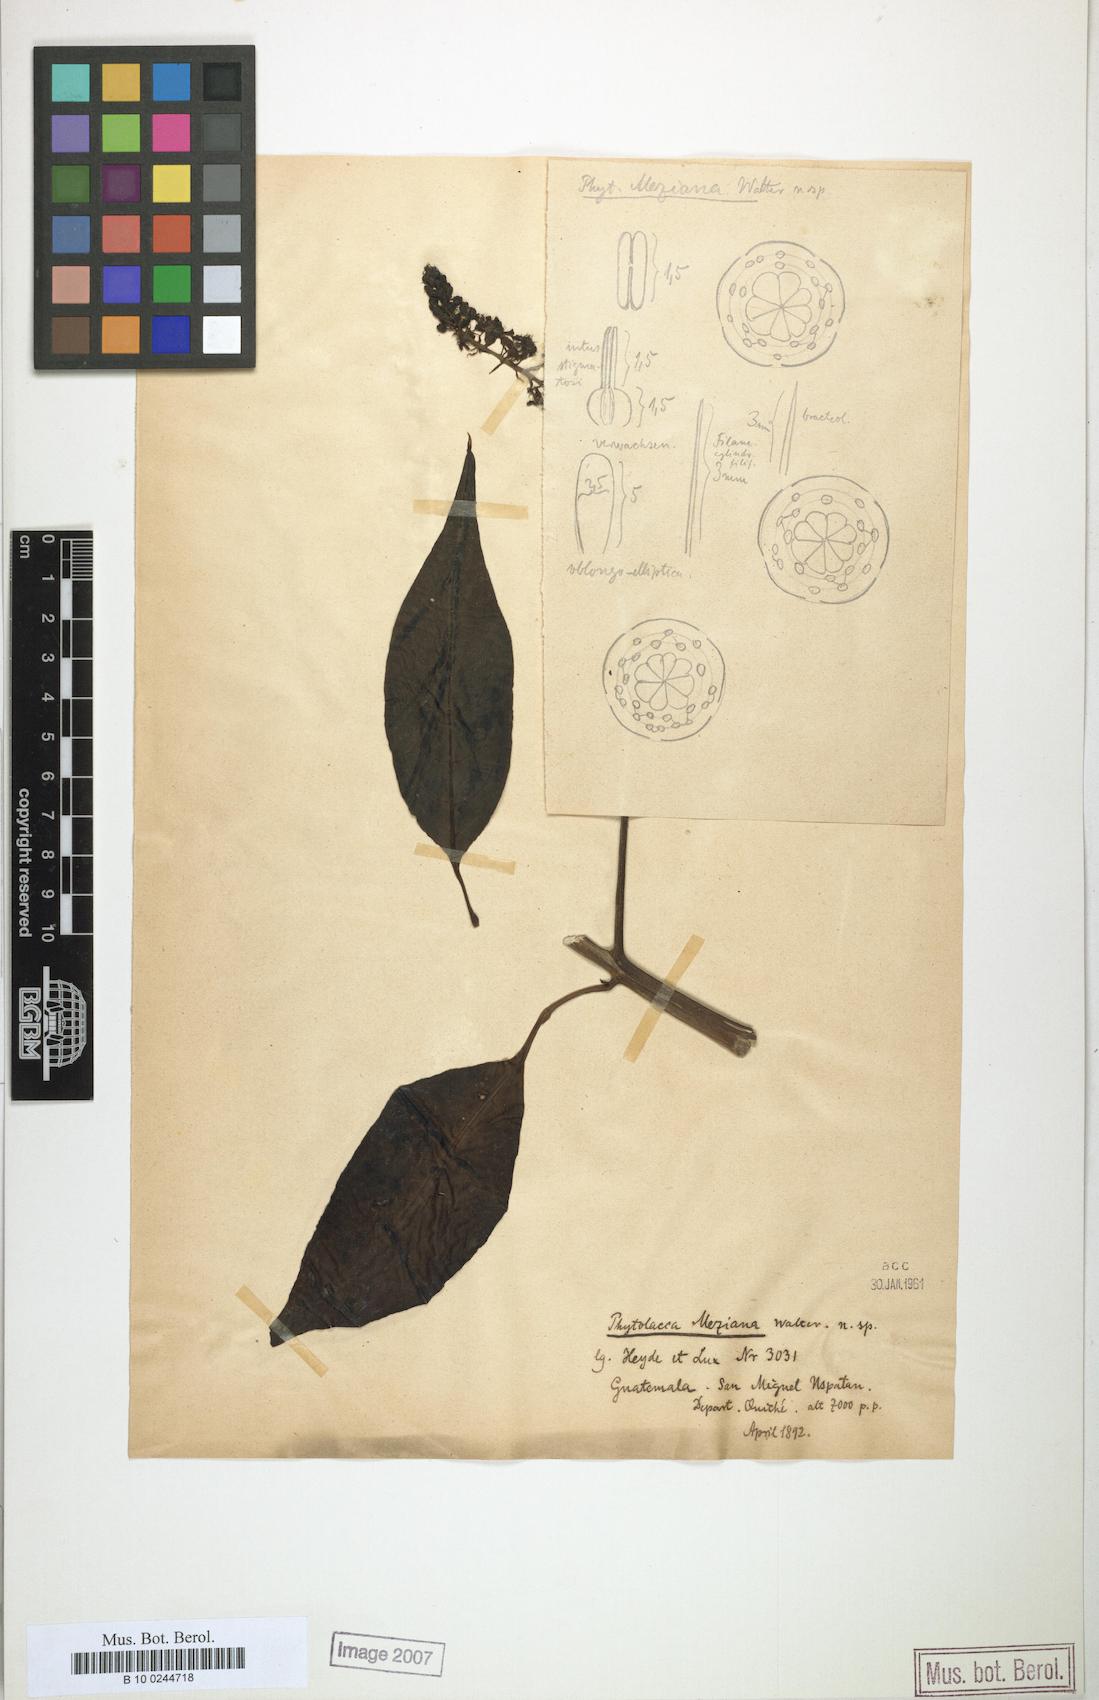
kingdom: Plantae
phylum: Tracheophyta
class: Magnoliopsida
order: Caryophyllales
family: Phytolaccaceae
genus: Phytolacca
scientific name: Phytolacca meziana
